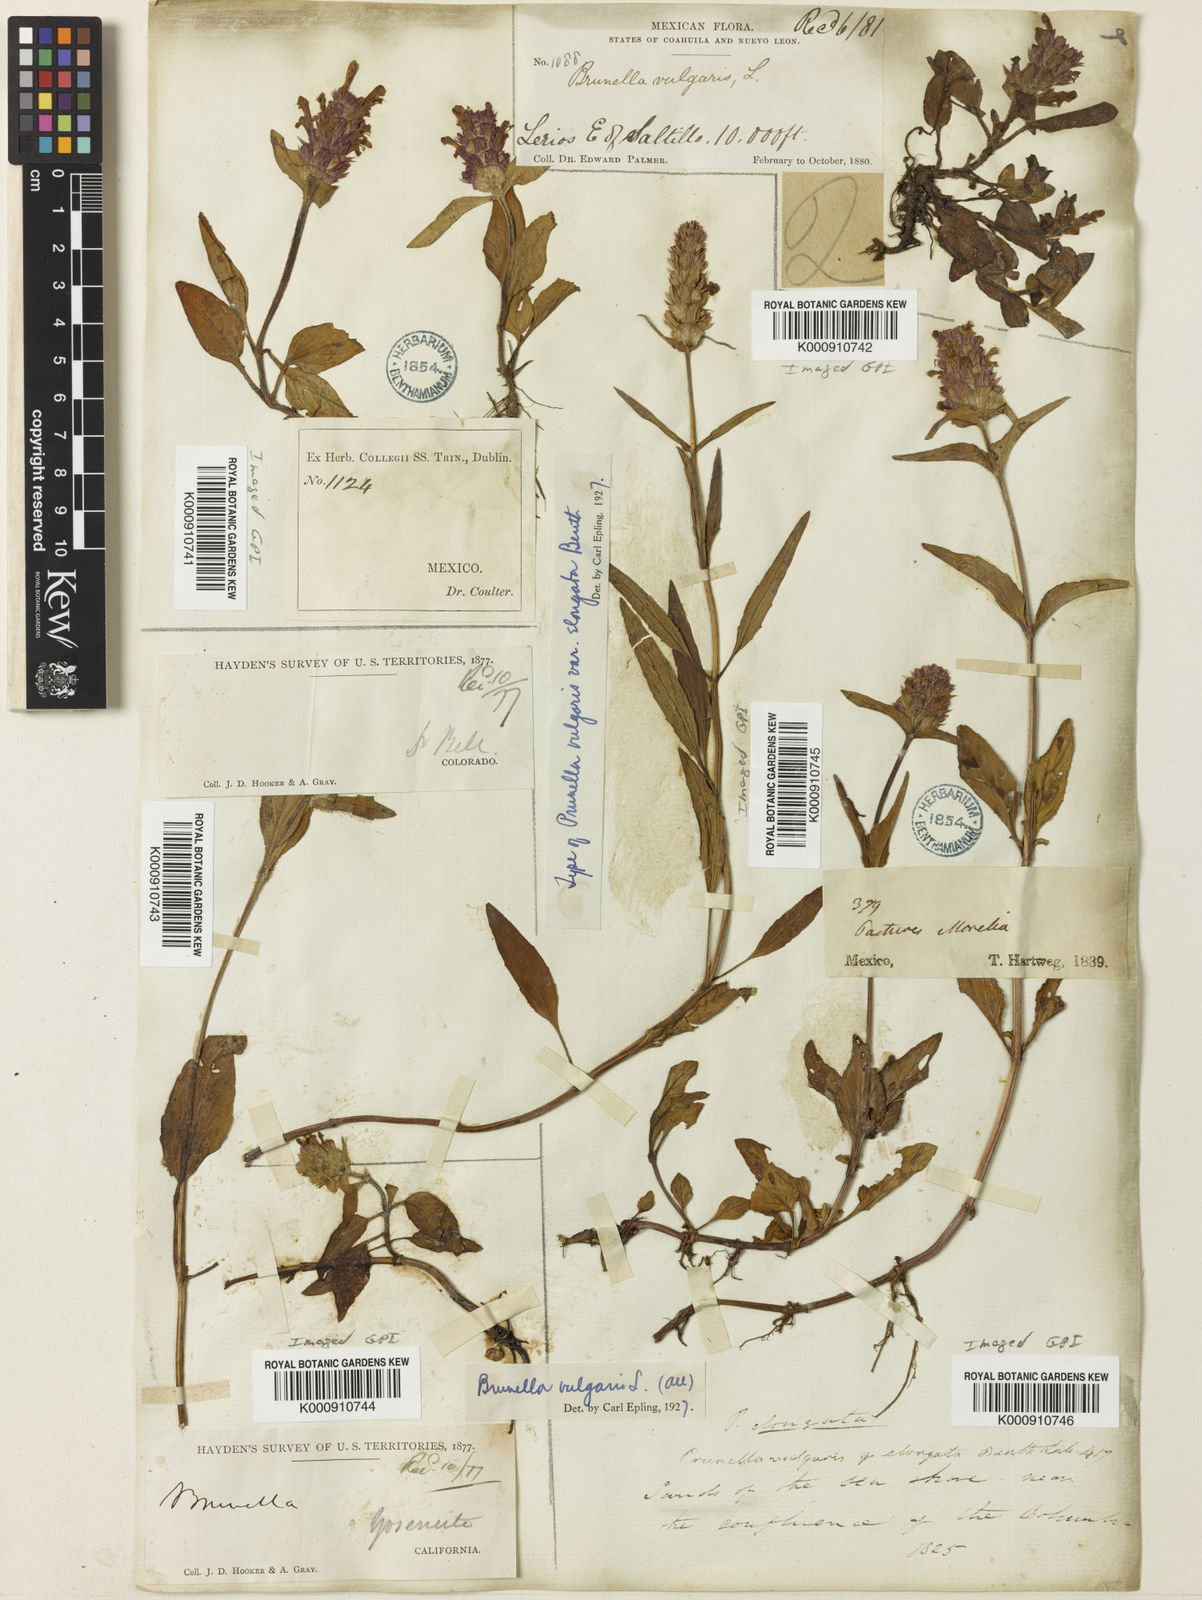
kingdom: Plantae
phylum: Tracheophyta
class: Magnoliopsida
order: Lamiales
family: Lamiaceae
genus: Prunella
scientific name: Prunella vulgaris
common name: Heal-all
